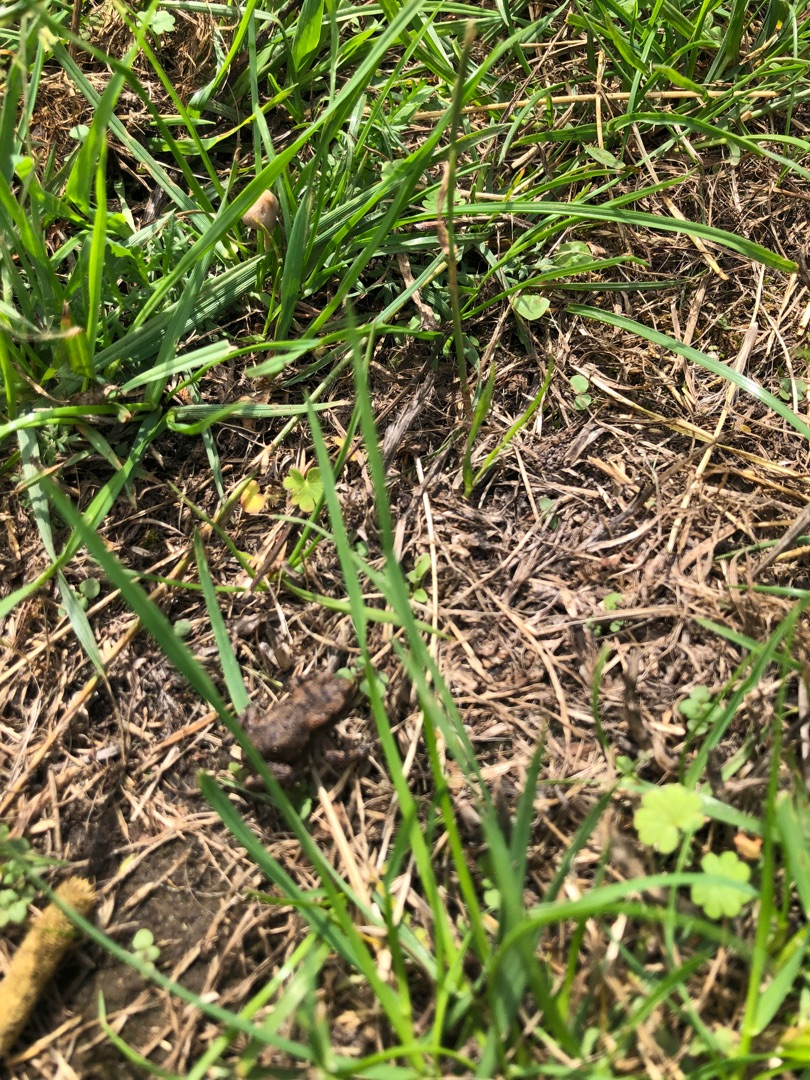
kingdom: Animalia
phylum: Chordata
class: Amphibia
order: Anura
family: Bufonidae
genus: Bufo
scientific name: Bufo bufo
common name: Skrubtudse
